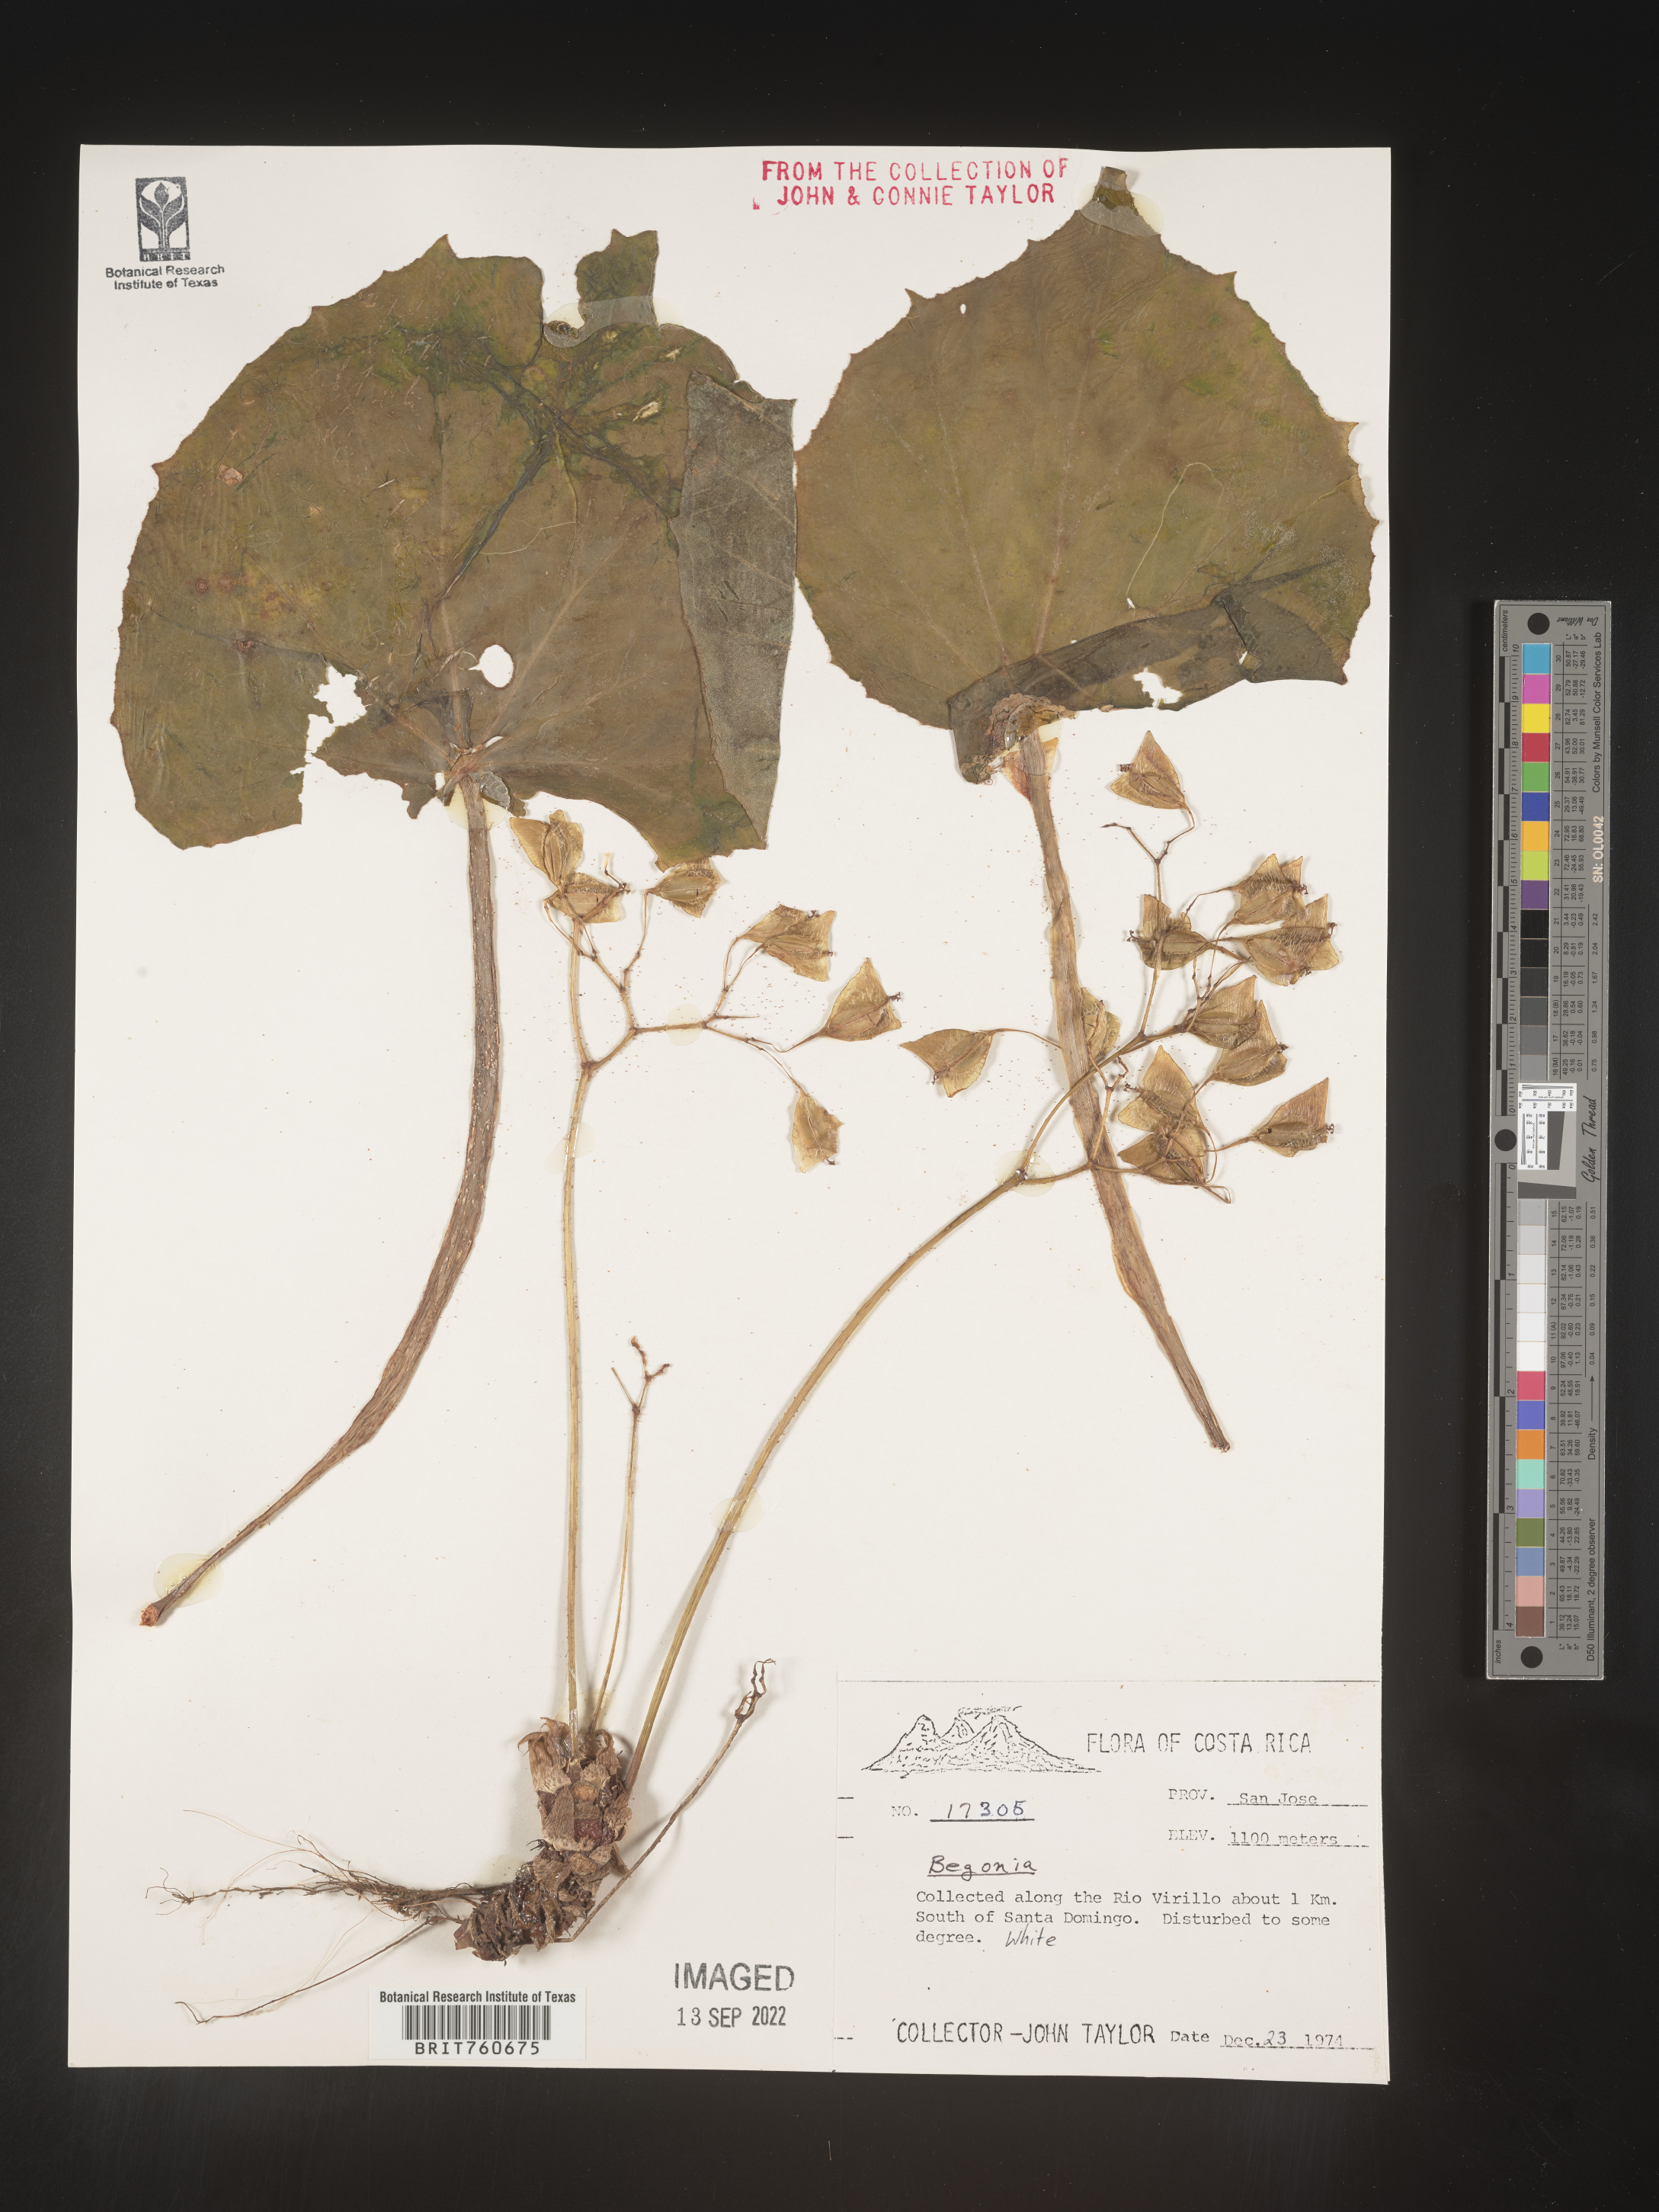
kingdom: Plantae
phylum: Tracheophyta
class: Magnoliopsida
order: Cucurbitales
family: Begoniaceae
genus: Begonia
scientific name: Begonia
